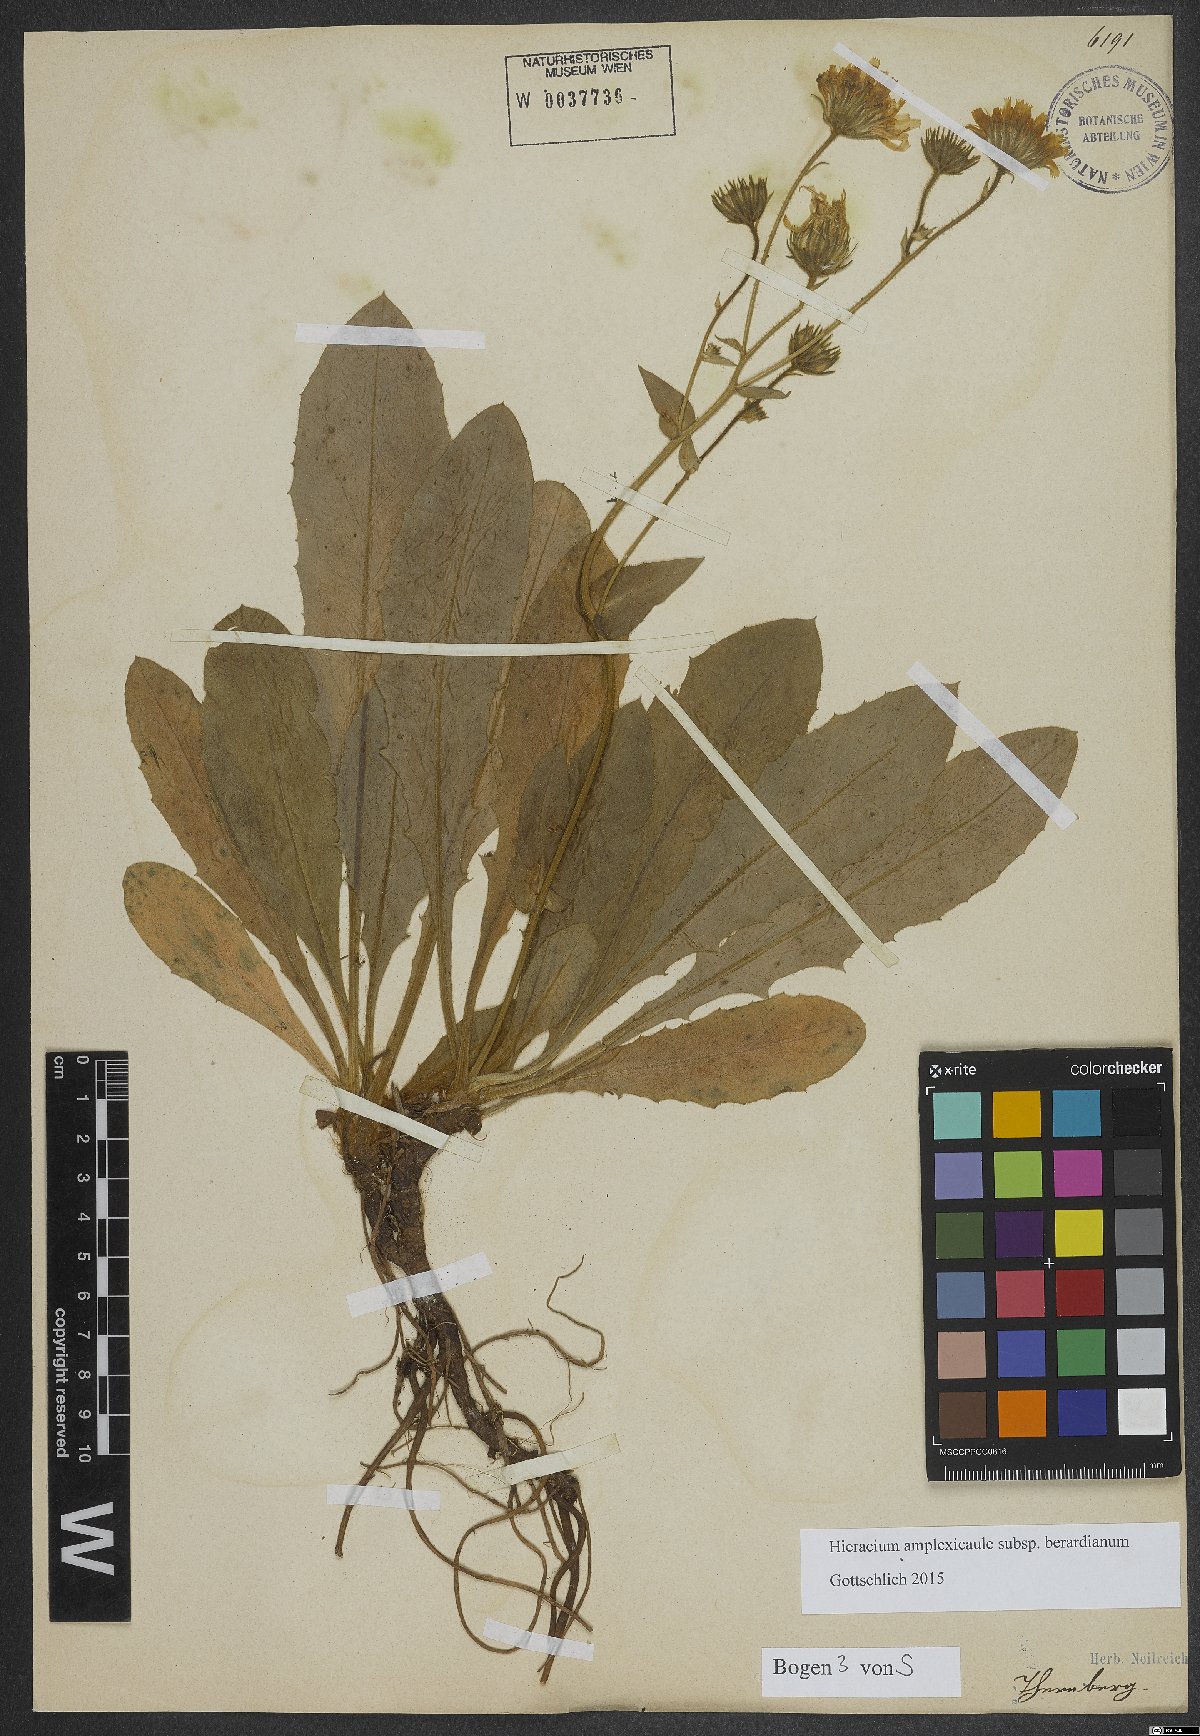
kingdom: Plantae
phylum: Tracheophyta
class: Magnoliopsida
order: Asterales
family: Asteraceae
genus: Hieracium
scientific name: Hieracium amplexicaule
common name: Sticky hawkweed
